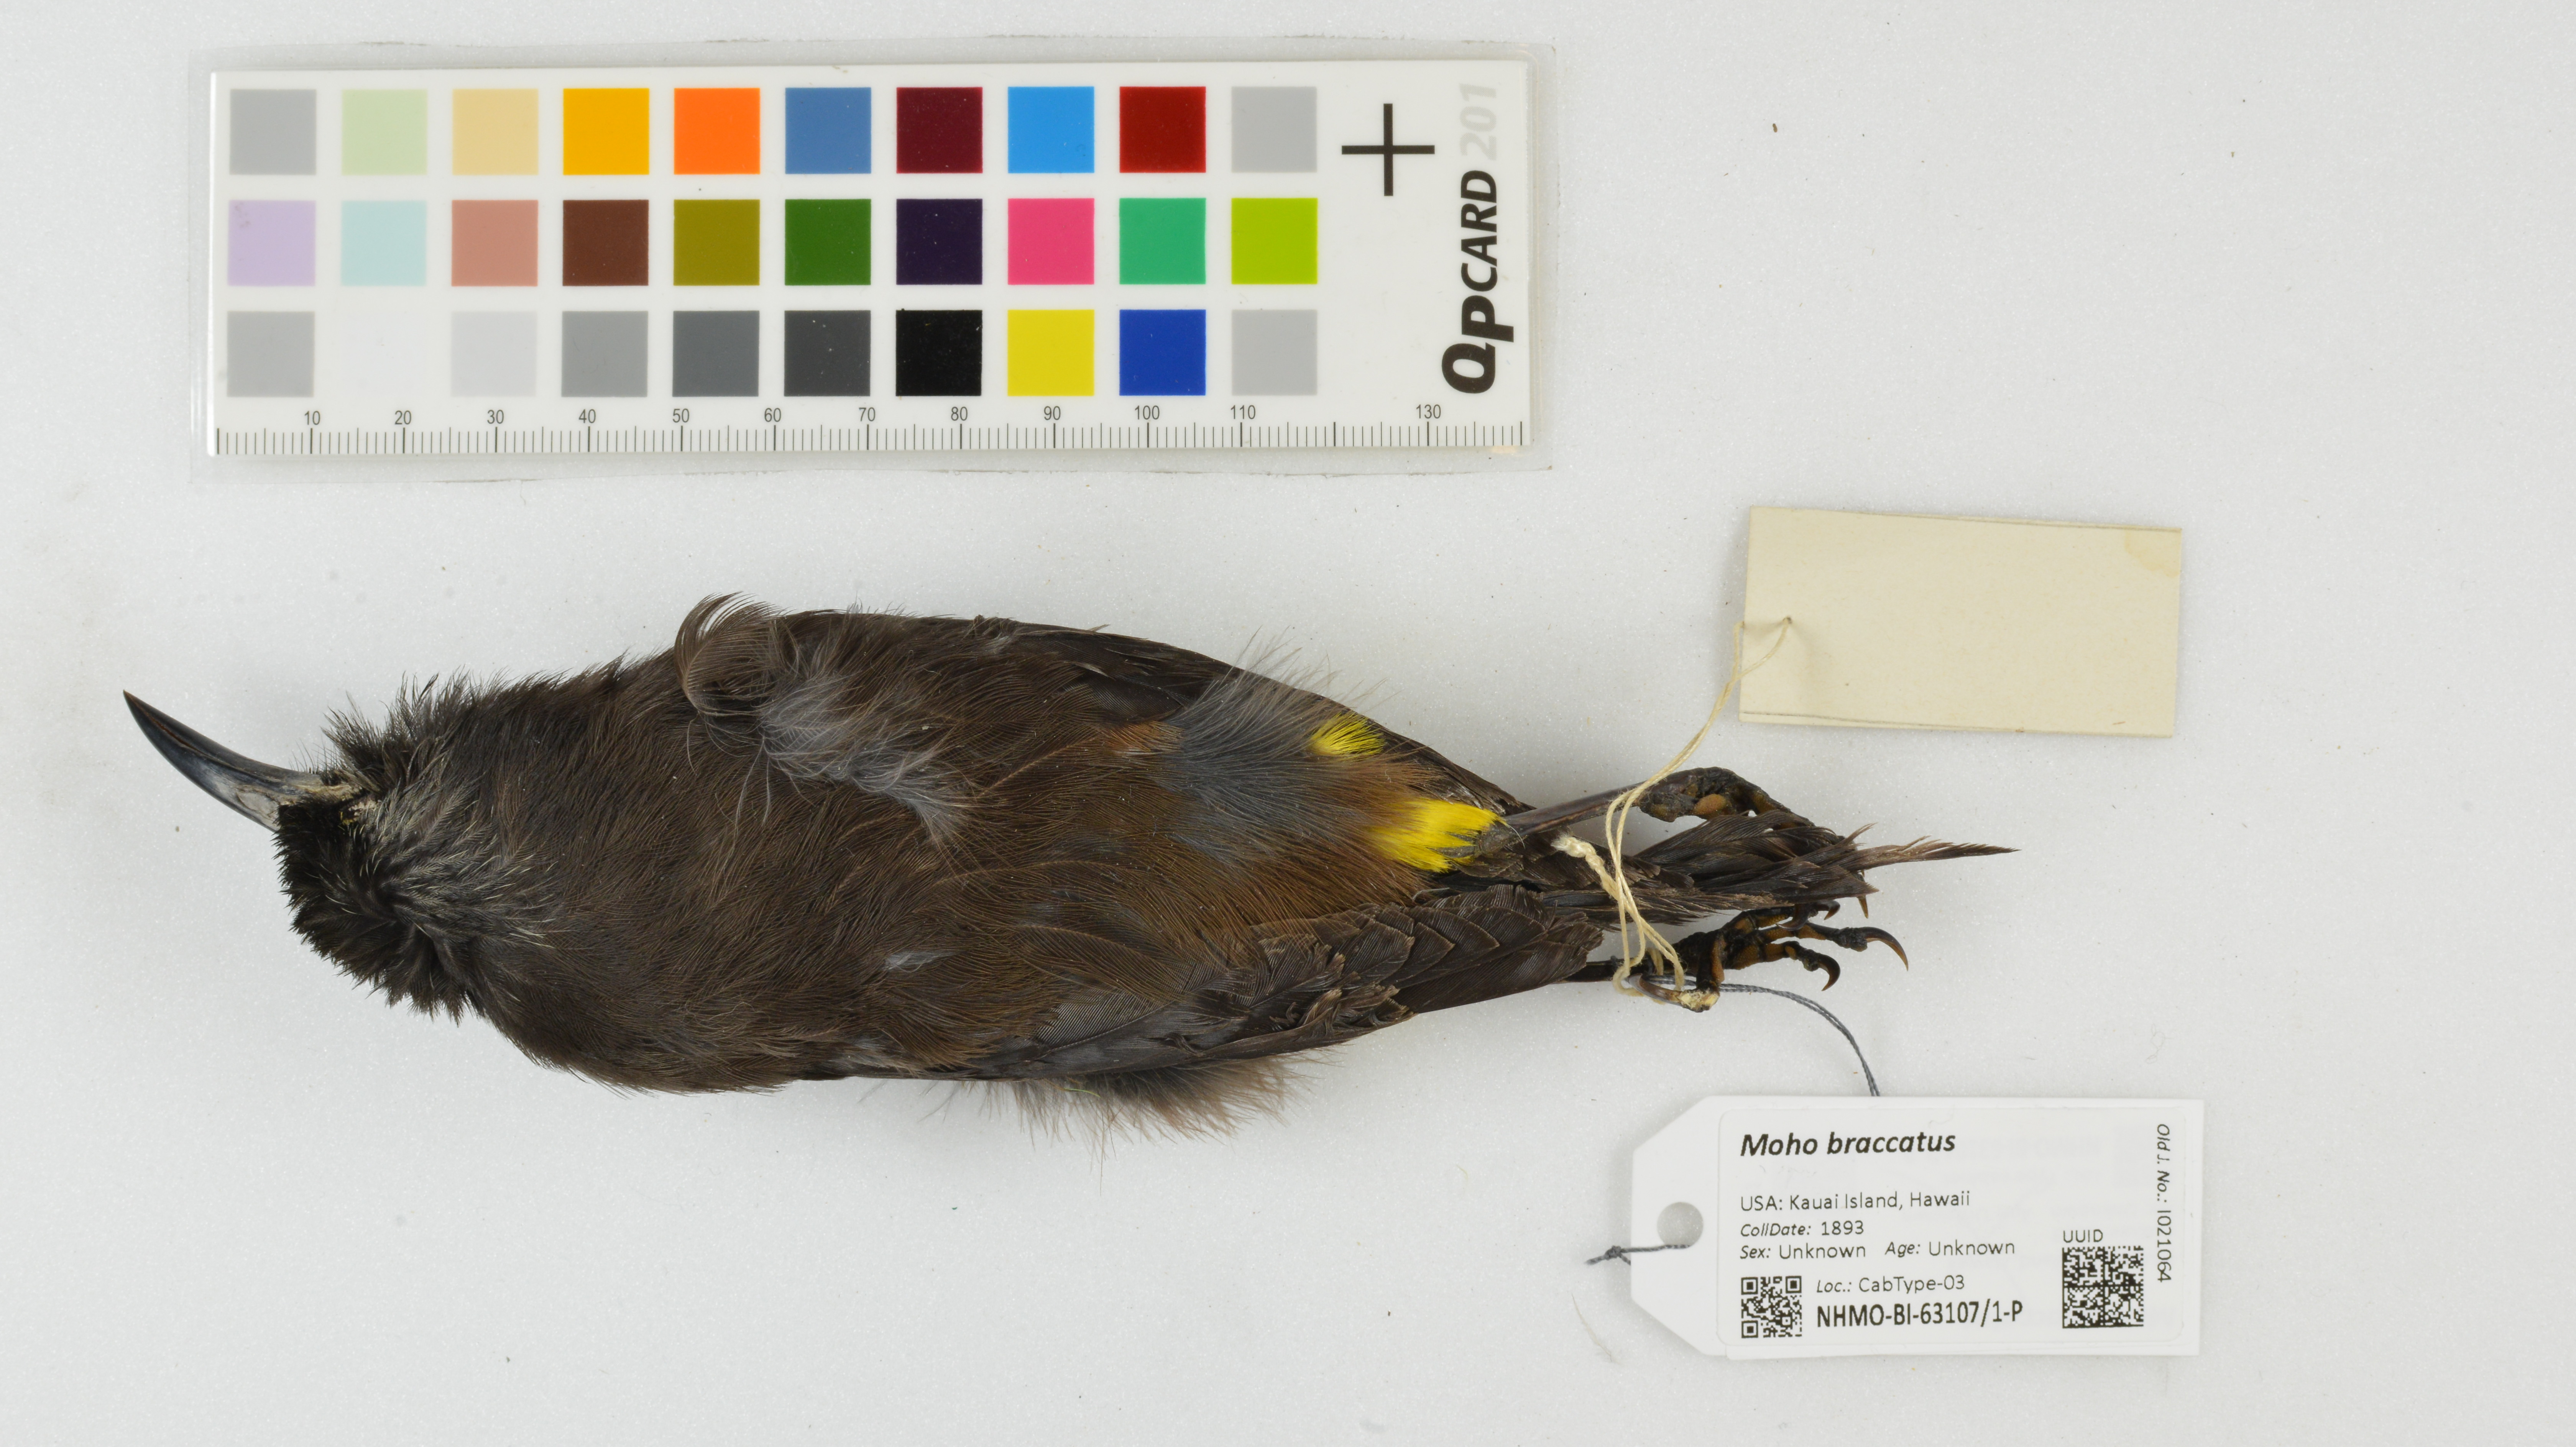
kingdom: Animalia
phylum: Chordata
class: Aves
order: Passeriformes
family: Mohoidae
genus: Moho
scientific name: Moho braccatus
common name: Kauai oo
